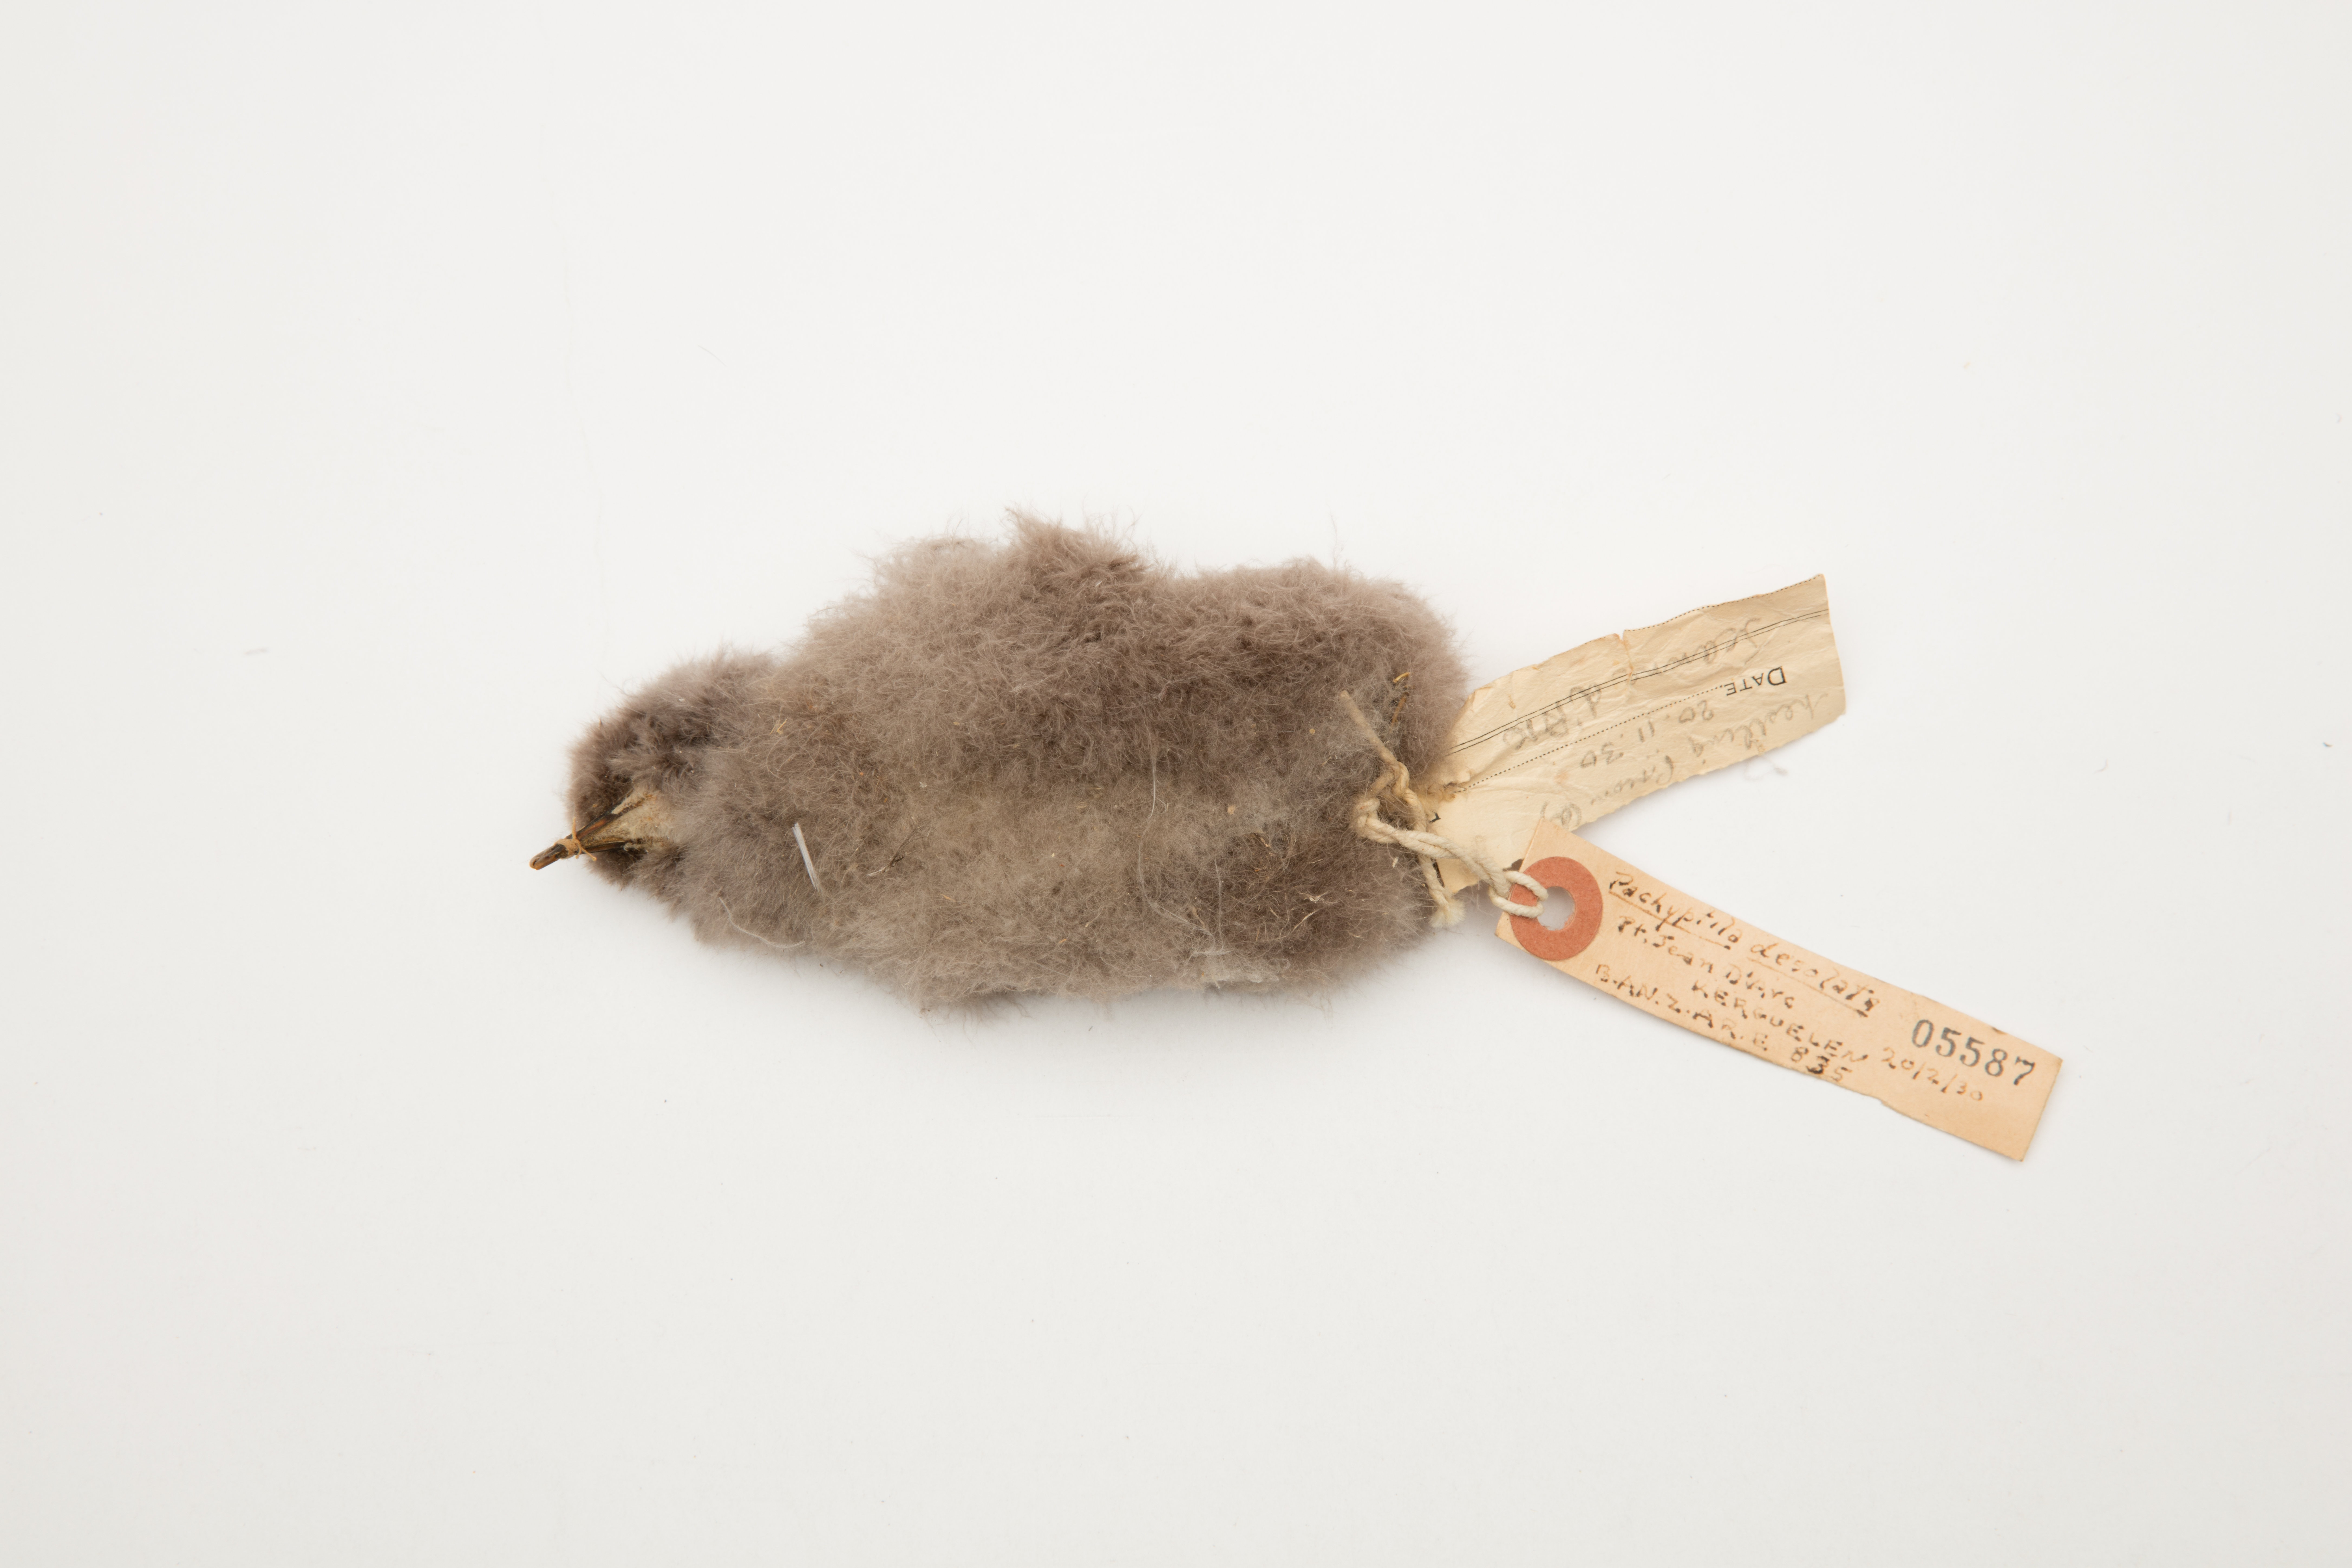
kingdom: Animalia
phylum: Chordata
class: Aves
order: Procellariiformes
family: Procellariidae
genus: Pachyptila
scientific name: Pachyptila desolata
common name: Antarctic prion
